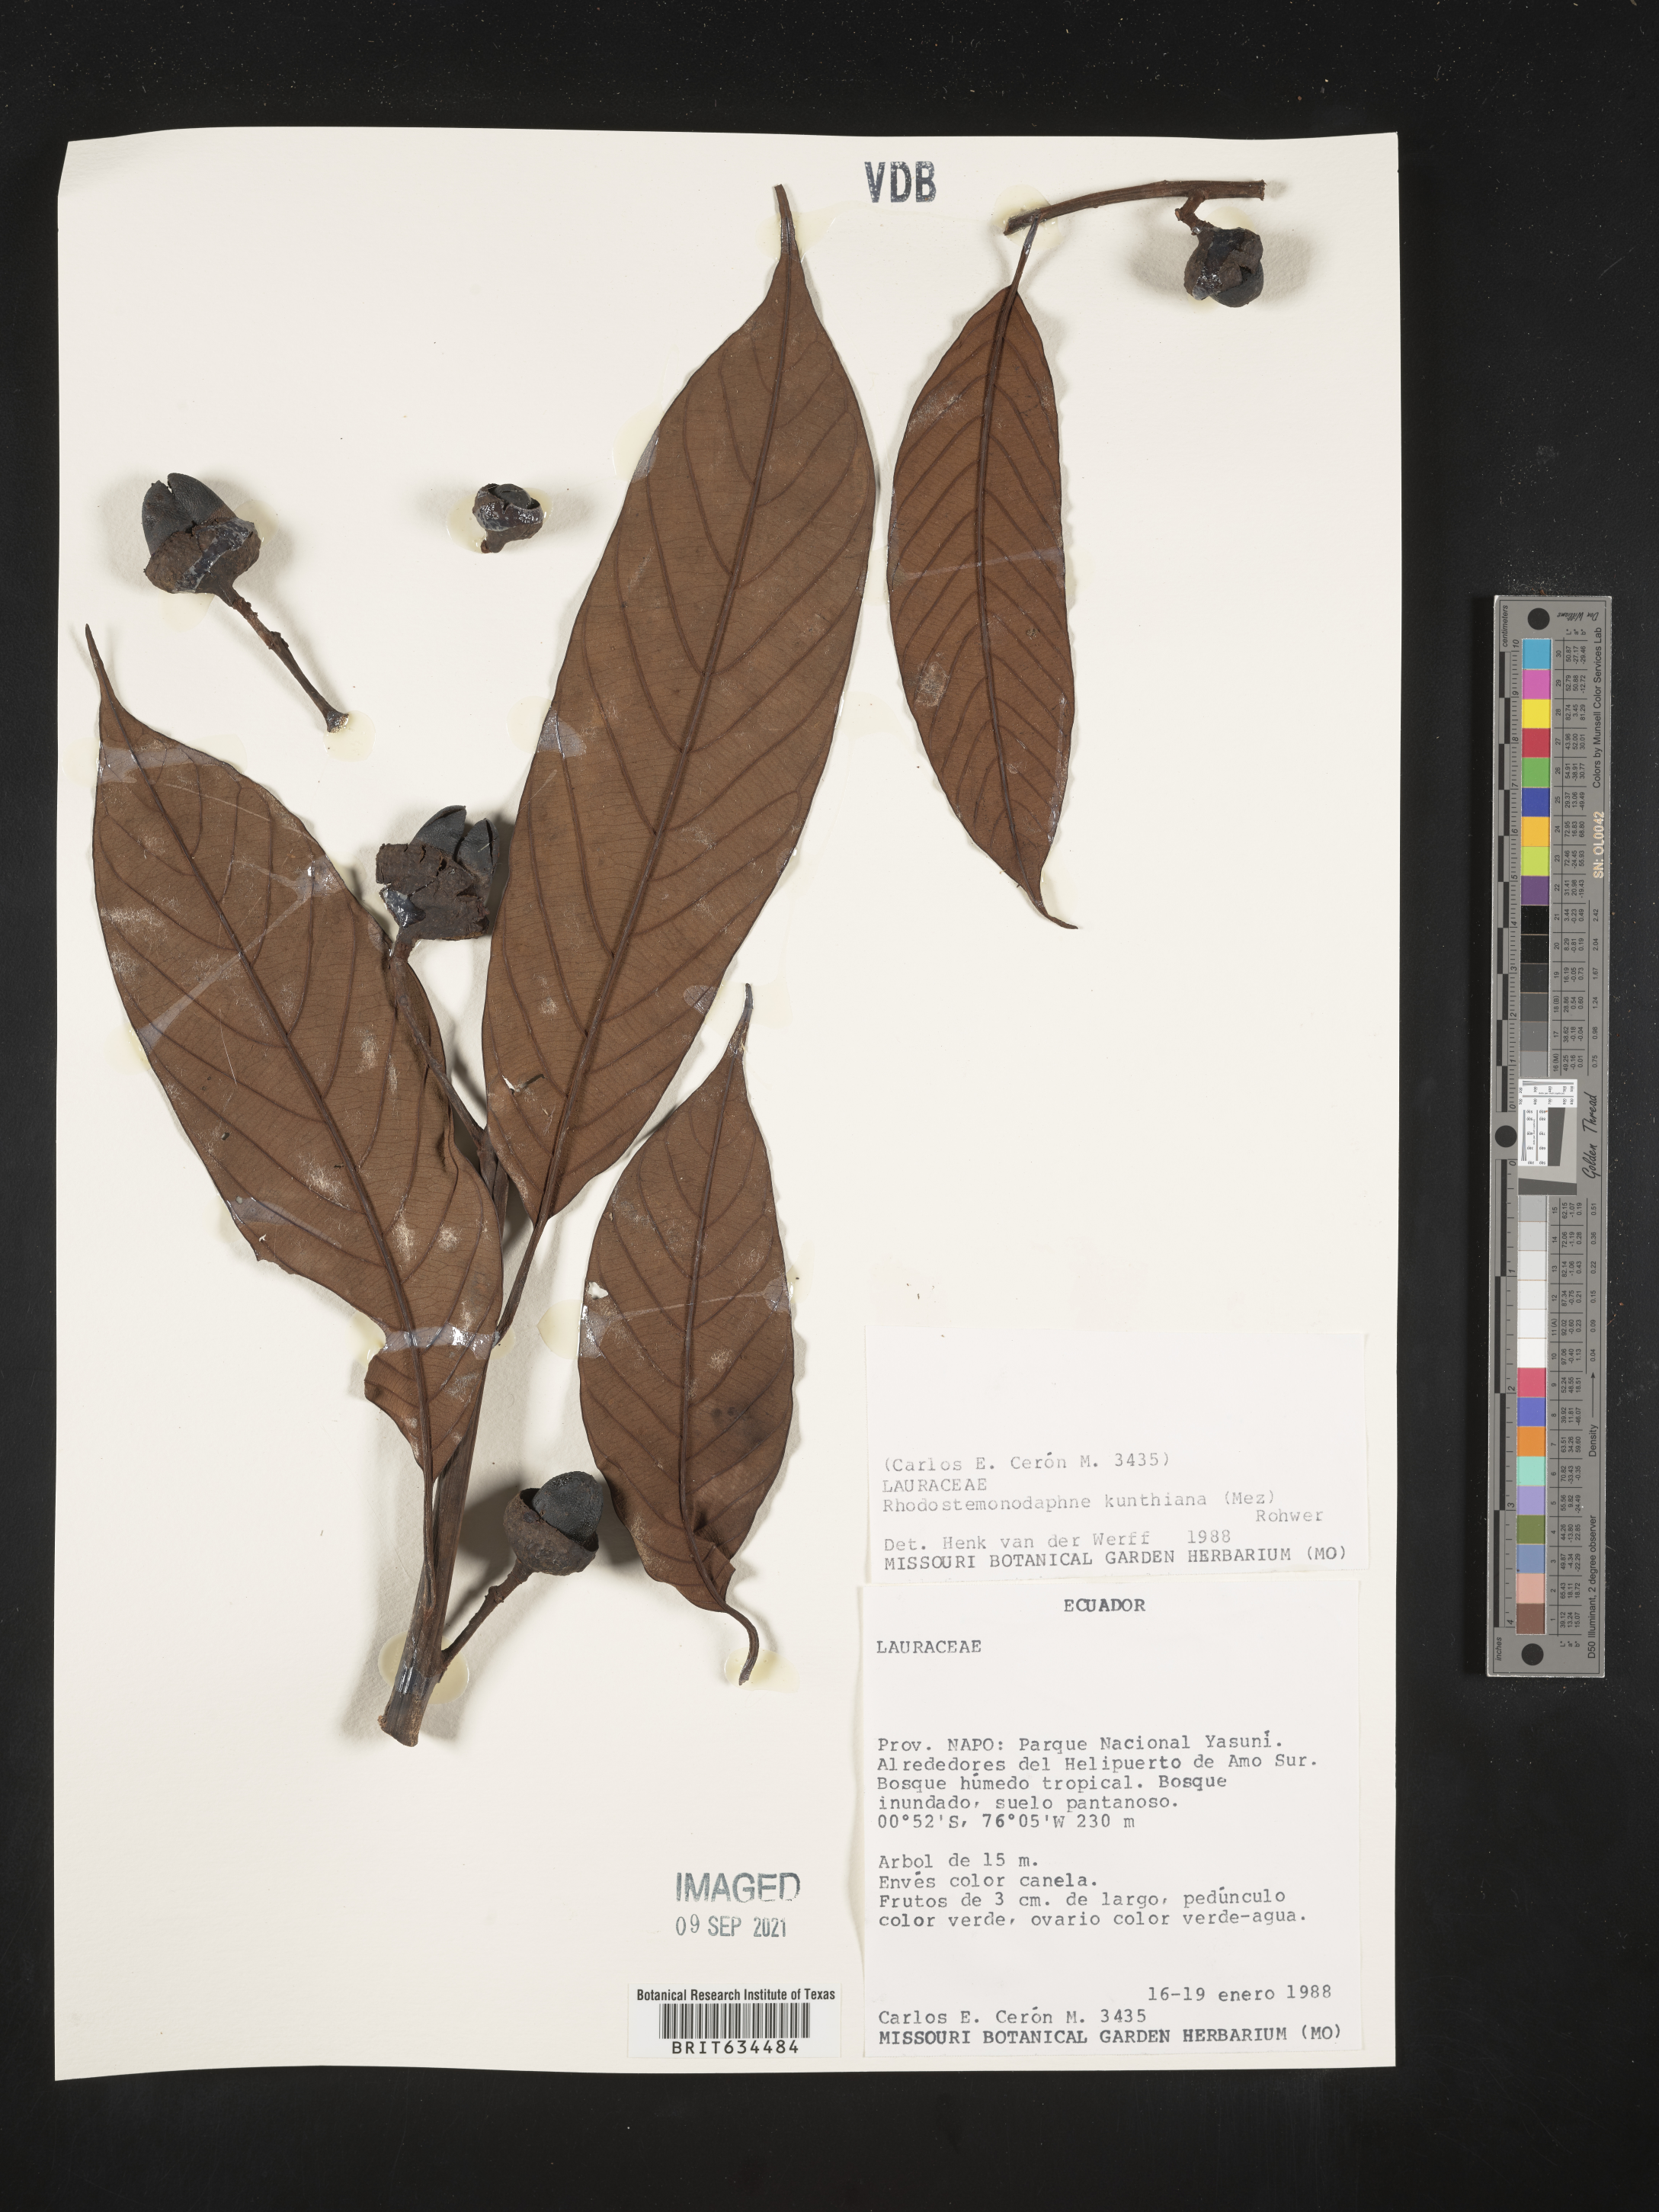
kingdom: Plantae
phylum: Tracheophyta
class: Magnoliopsida
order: Laurales
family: Lauraceae
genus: Rhodostemonodaphne
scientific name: Rhodostemonodaphne
